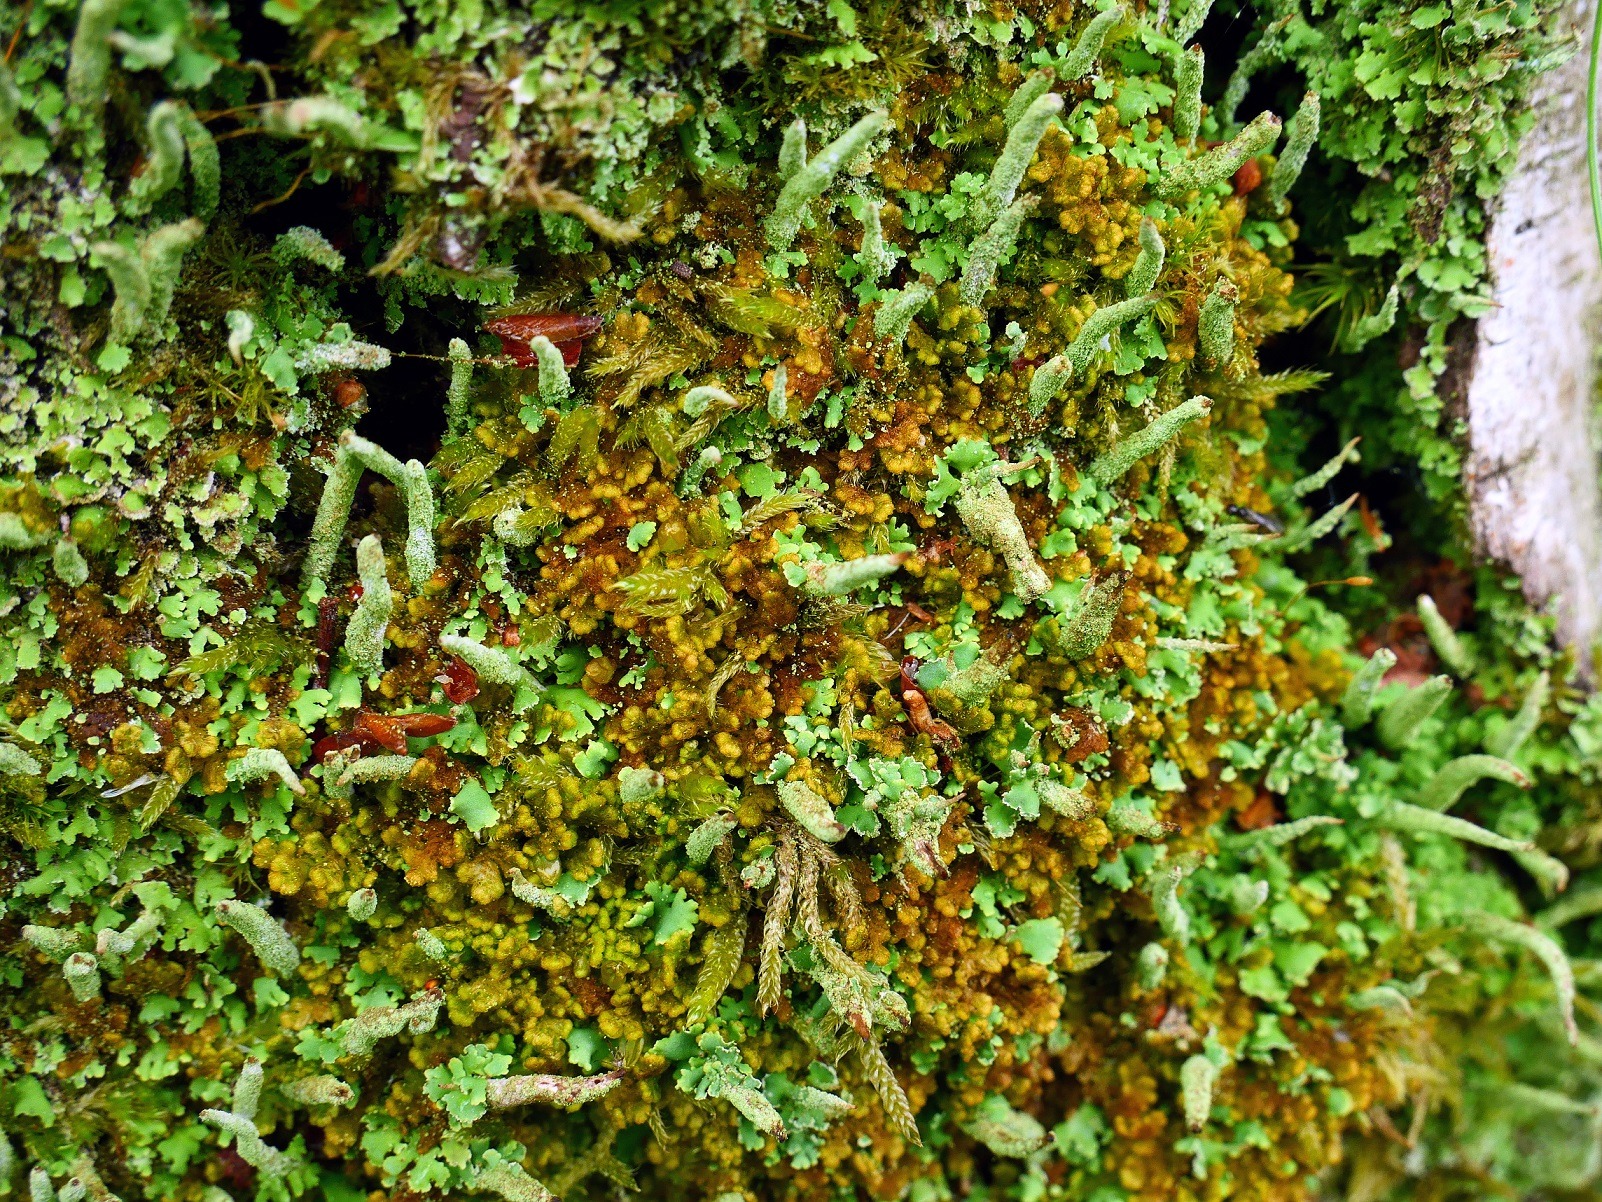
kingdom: Plantae
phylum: Marchantiophyta
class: Jungermanniopsida
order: Ptilidiales
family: Ptilidiaceae
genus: Ptilidium
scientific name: Ptilidium pulcherrimum
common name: Stub-frynsemos
